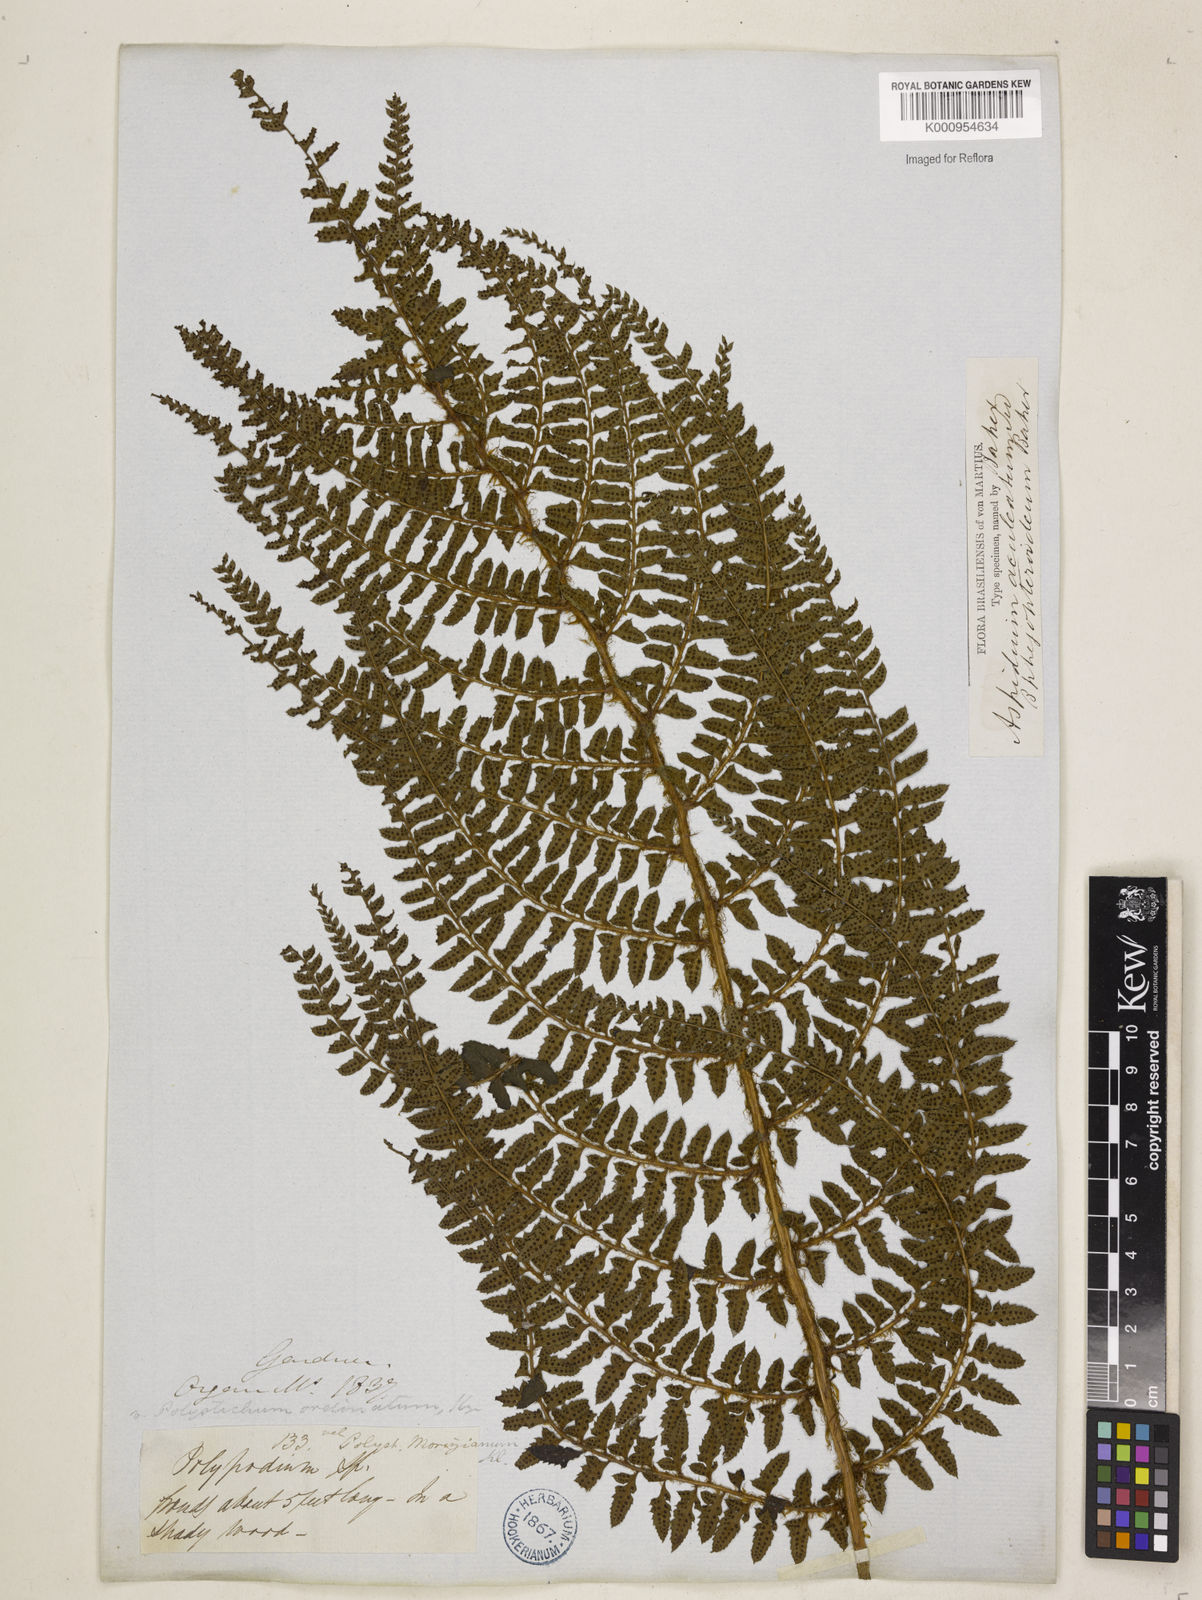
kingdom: Plantae
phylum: Tracheophyta
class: Polypodiopsida
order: Polypodiales
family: Dryopteridaceae
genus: Polystichum
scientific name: Polystichum
